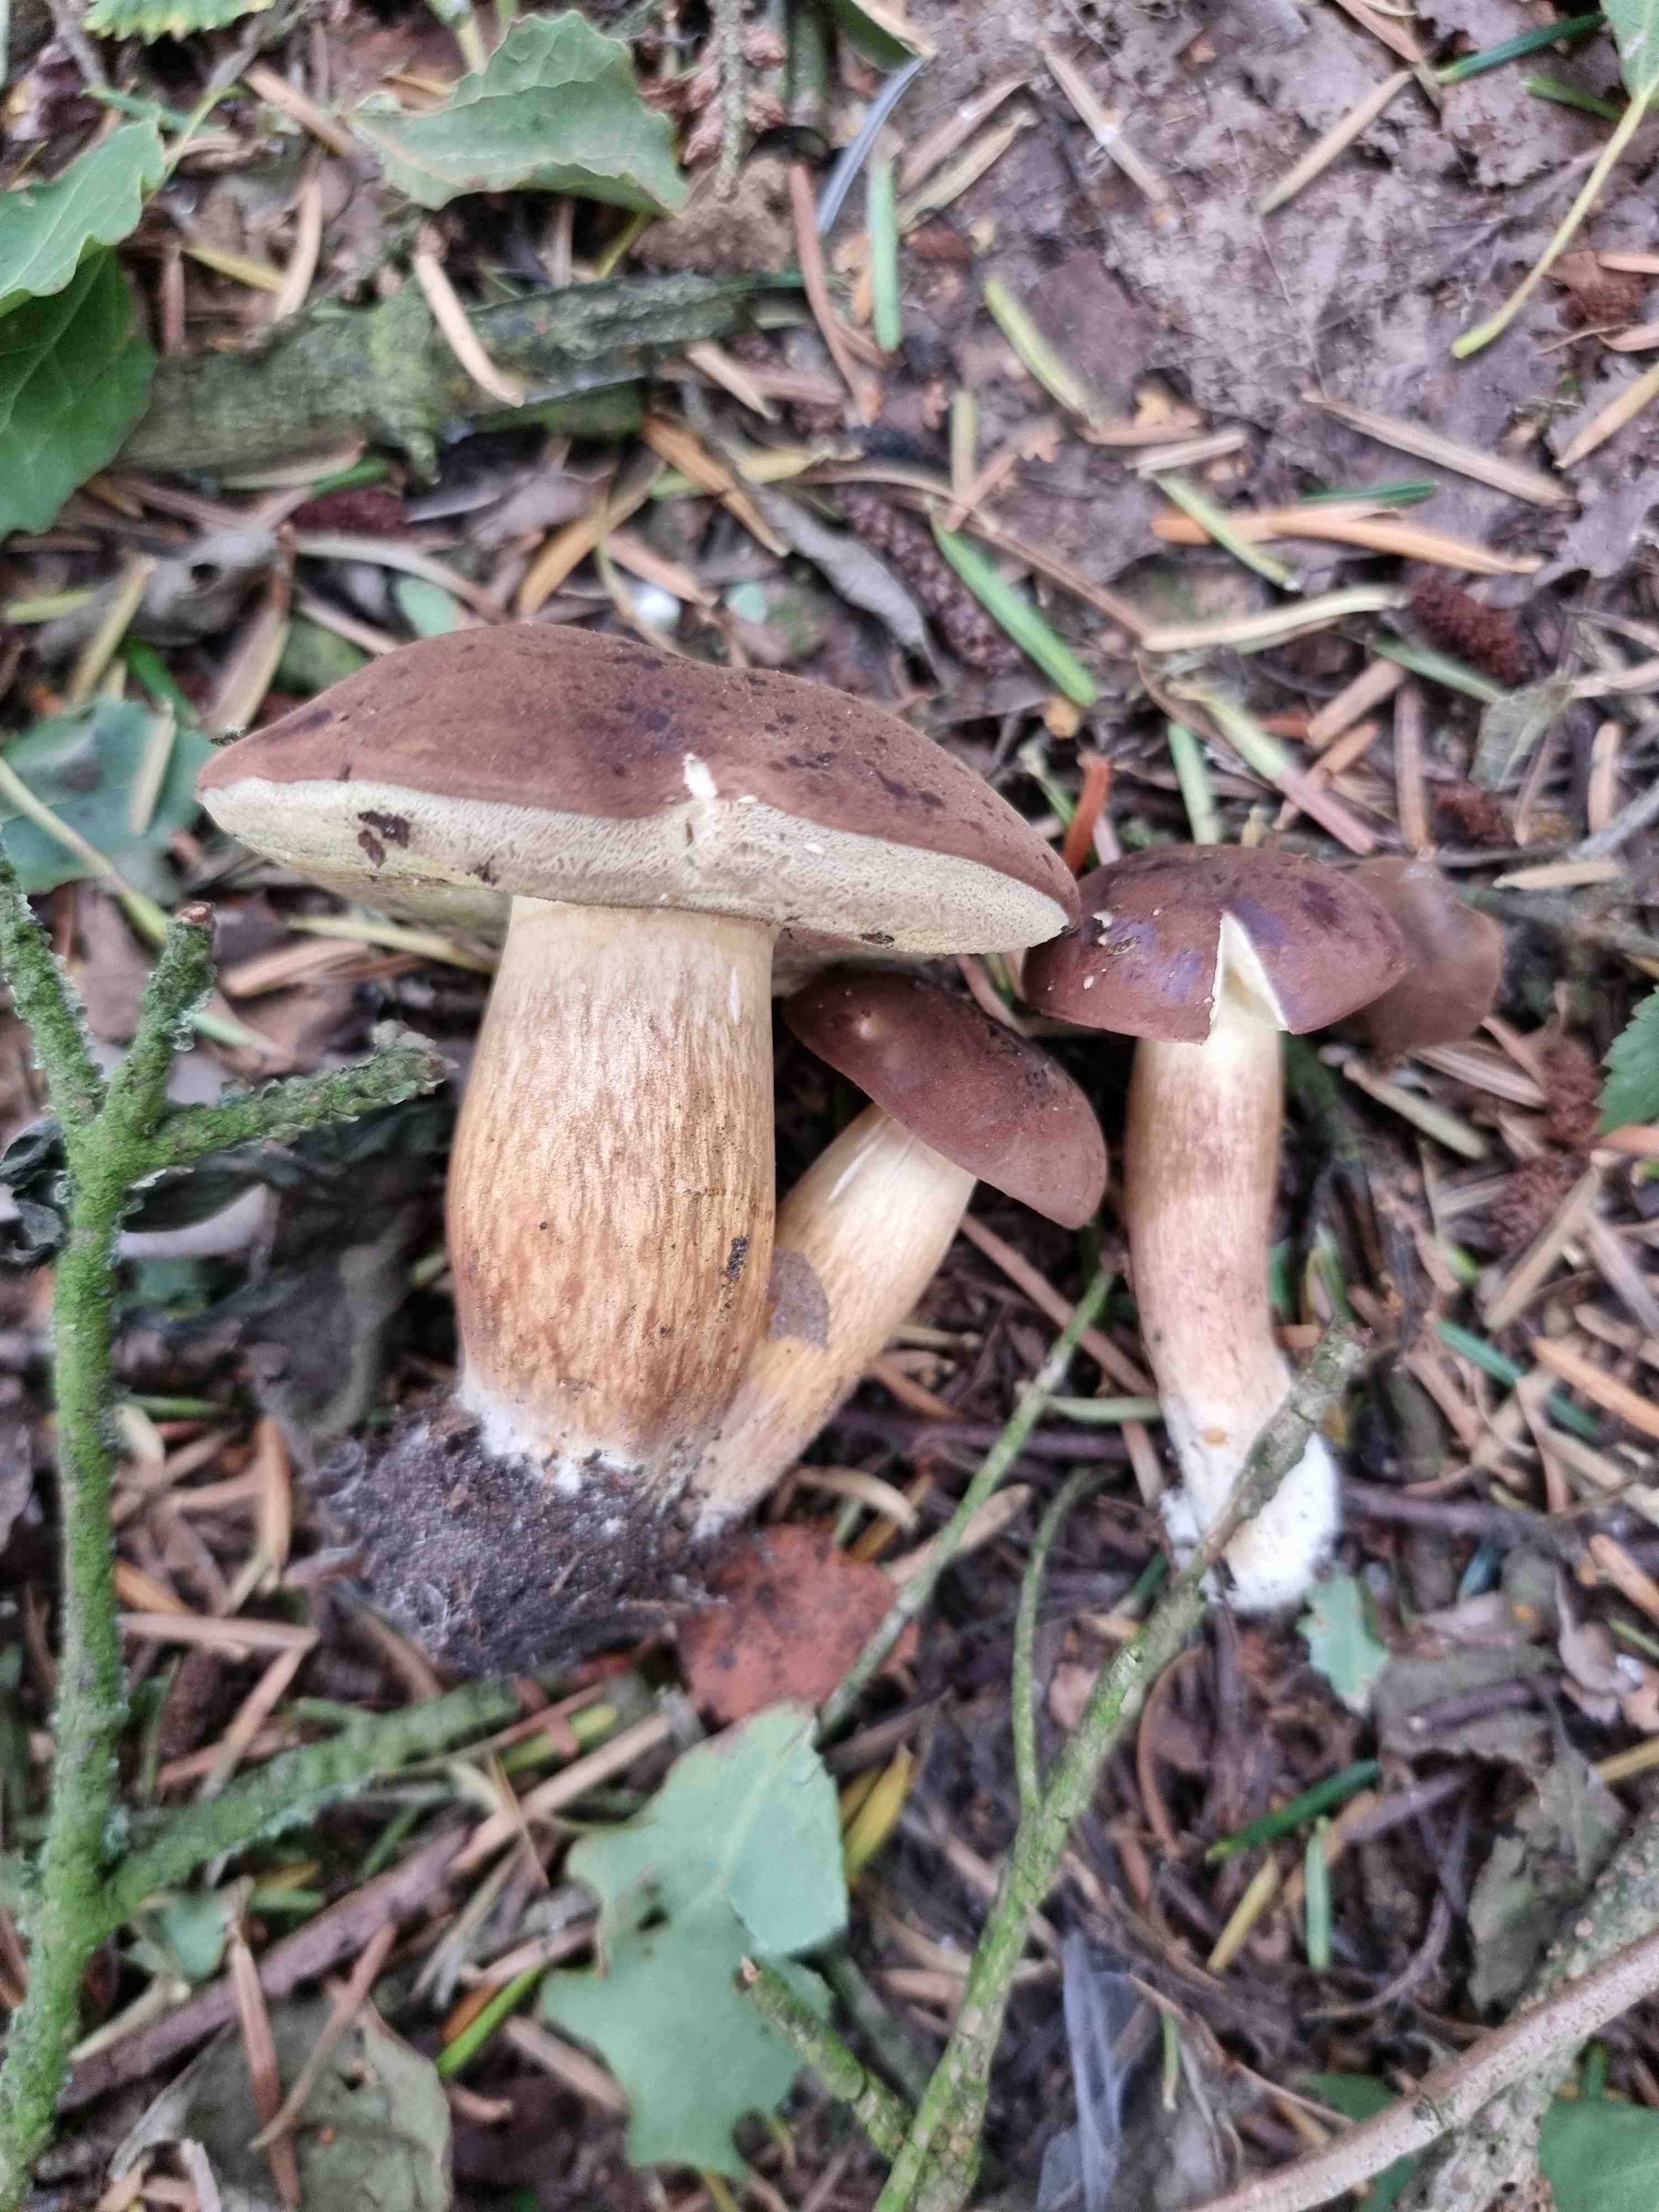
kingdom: Fungi
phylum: Basidiomycota
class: Agaricomycetes
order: Boletales
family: Boletaceae
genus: Imleria
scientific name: Imleria badia
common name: brunstokket rørhat
